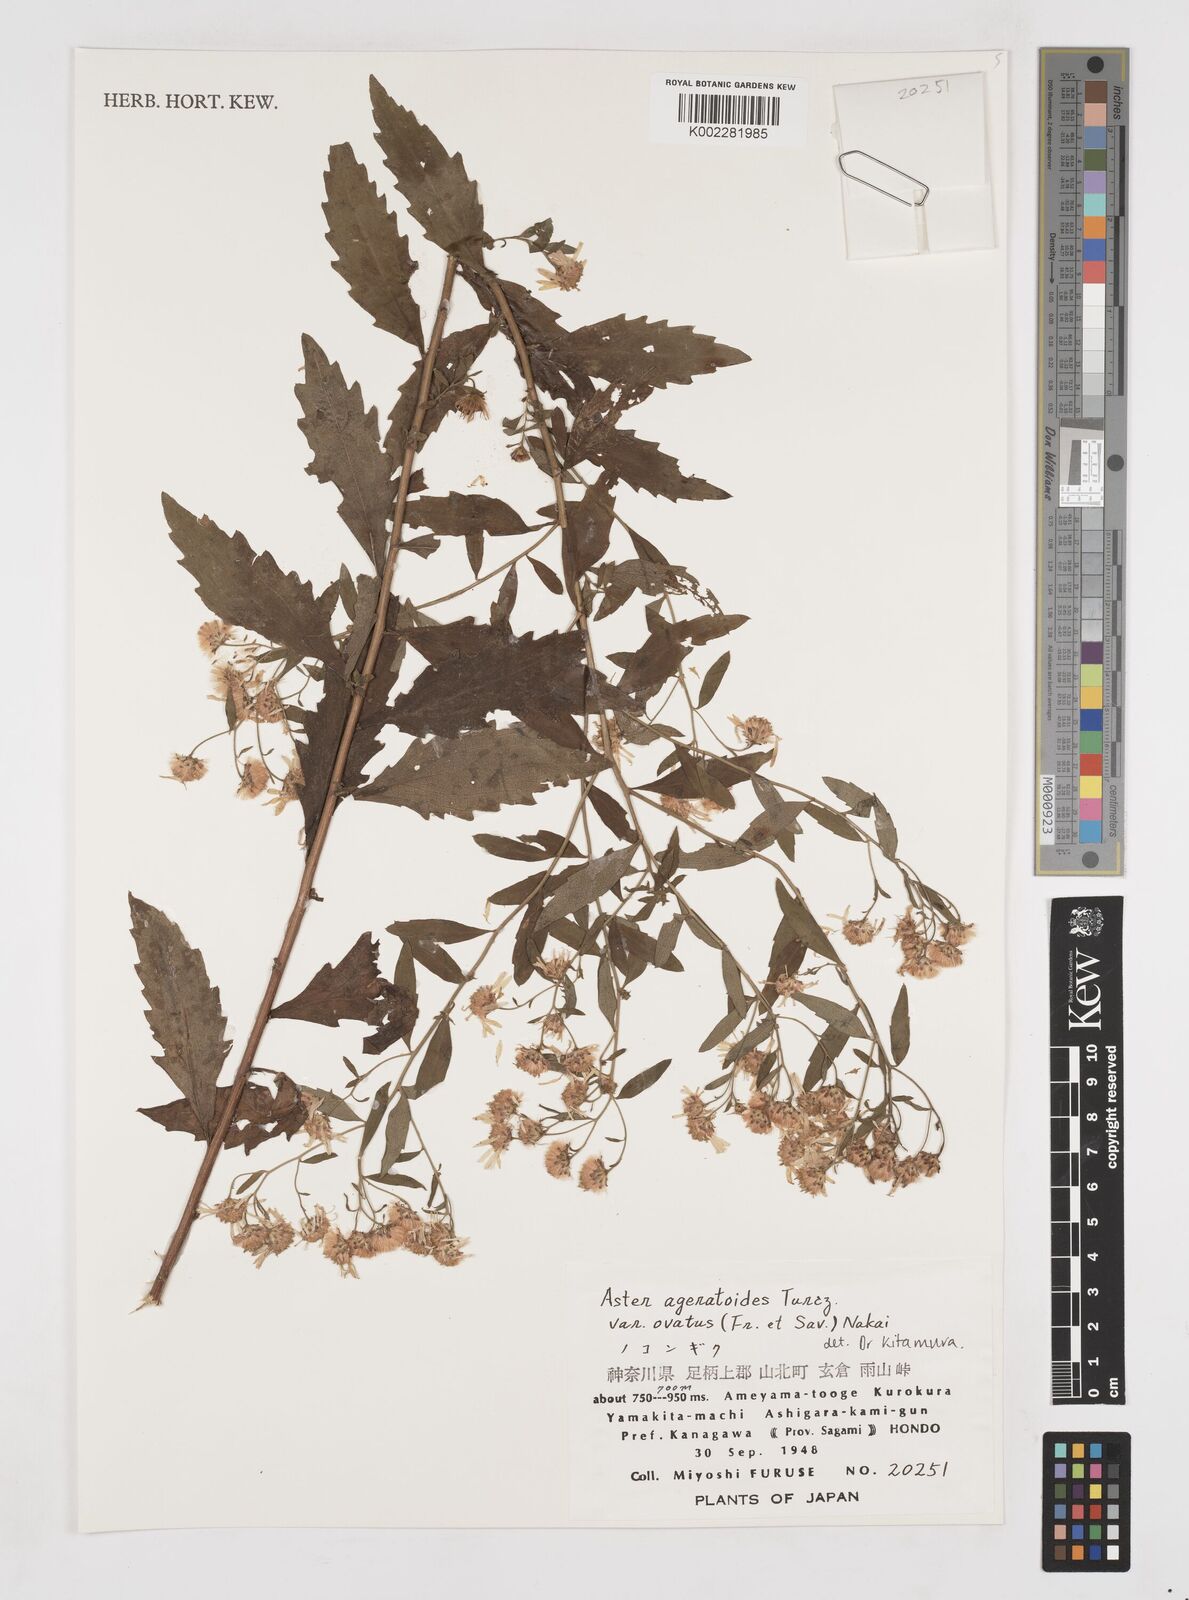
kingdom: Plantae
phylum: Tracheophyta
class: Magnoliopsida
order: Asterales
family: Asteraceae
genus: Aster
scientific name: Aster trinervius
